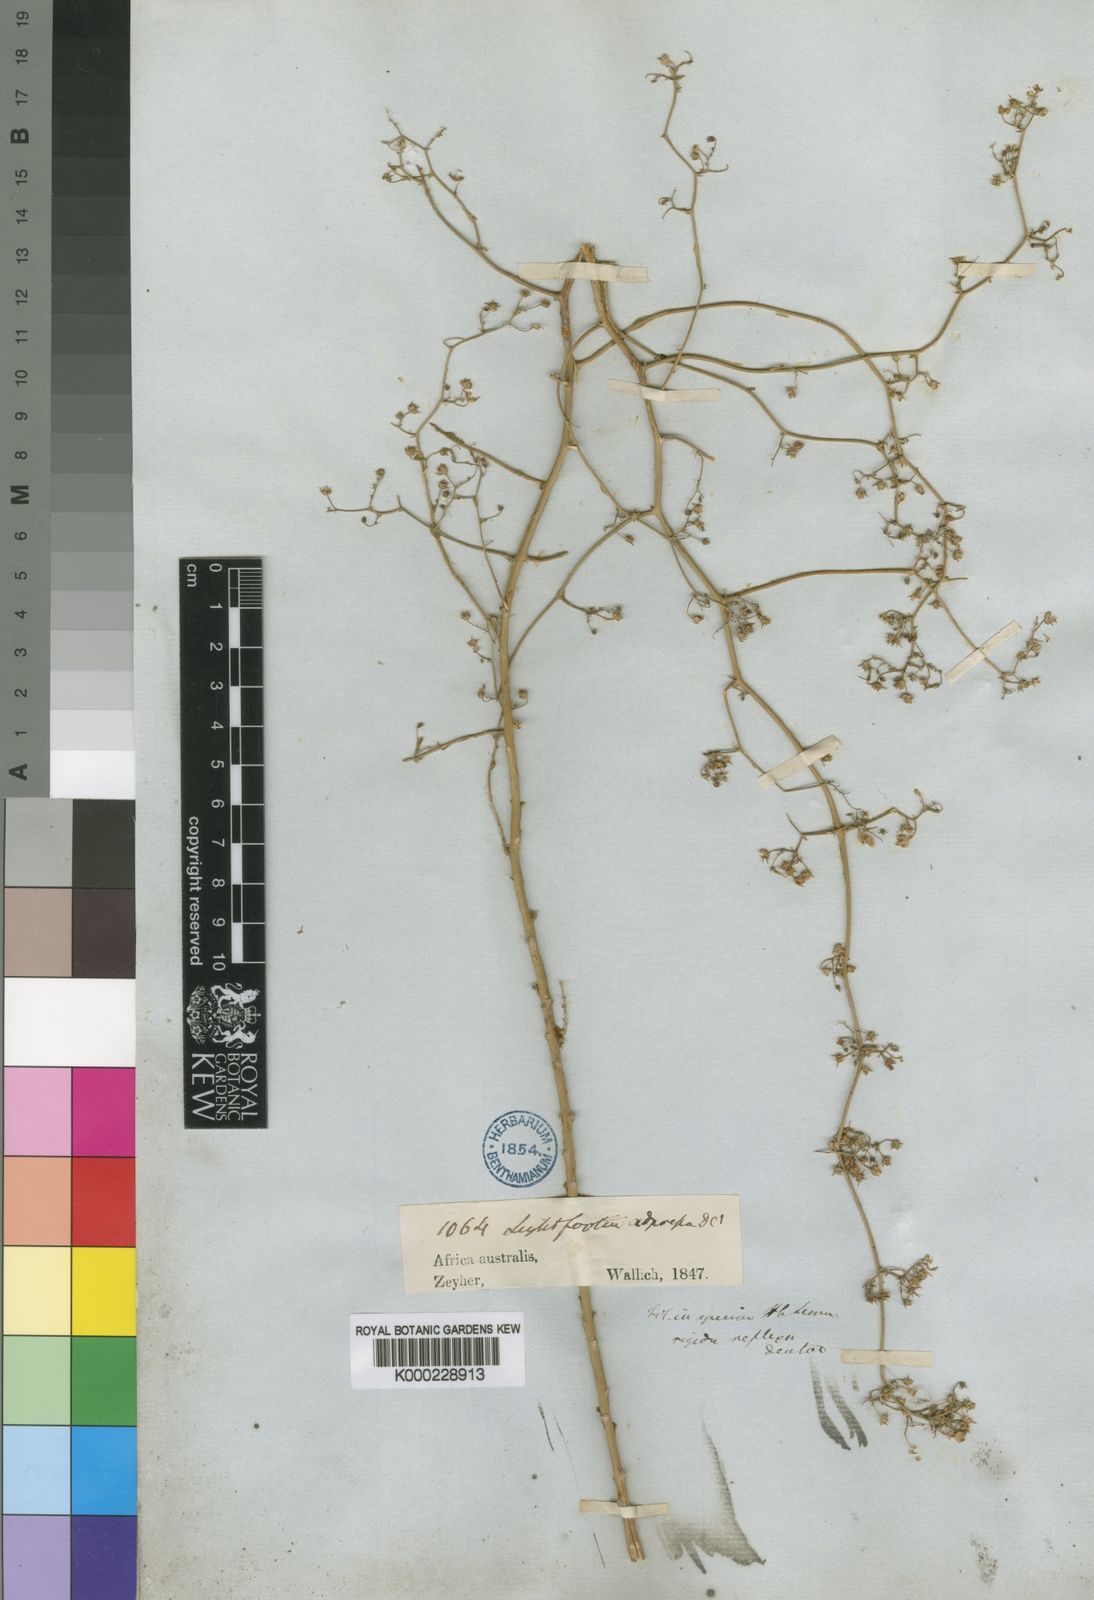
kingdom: Plantae
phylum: Tracheophyta
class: Magnoliopsida
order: Asterales
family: Campanulaceae
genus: Wahlenbergia
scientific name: Wahlenbergia adpressa
